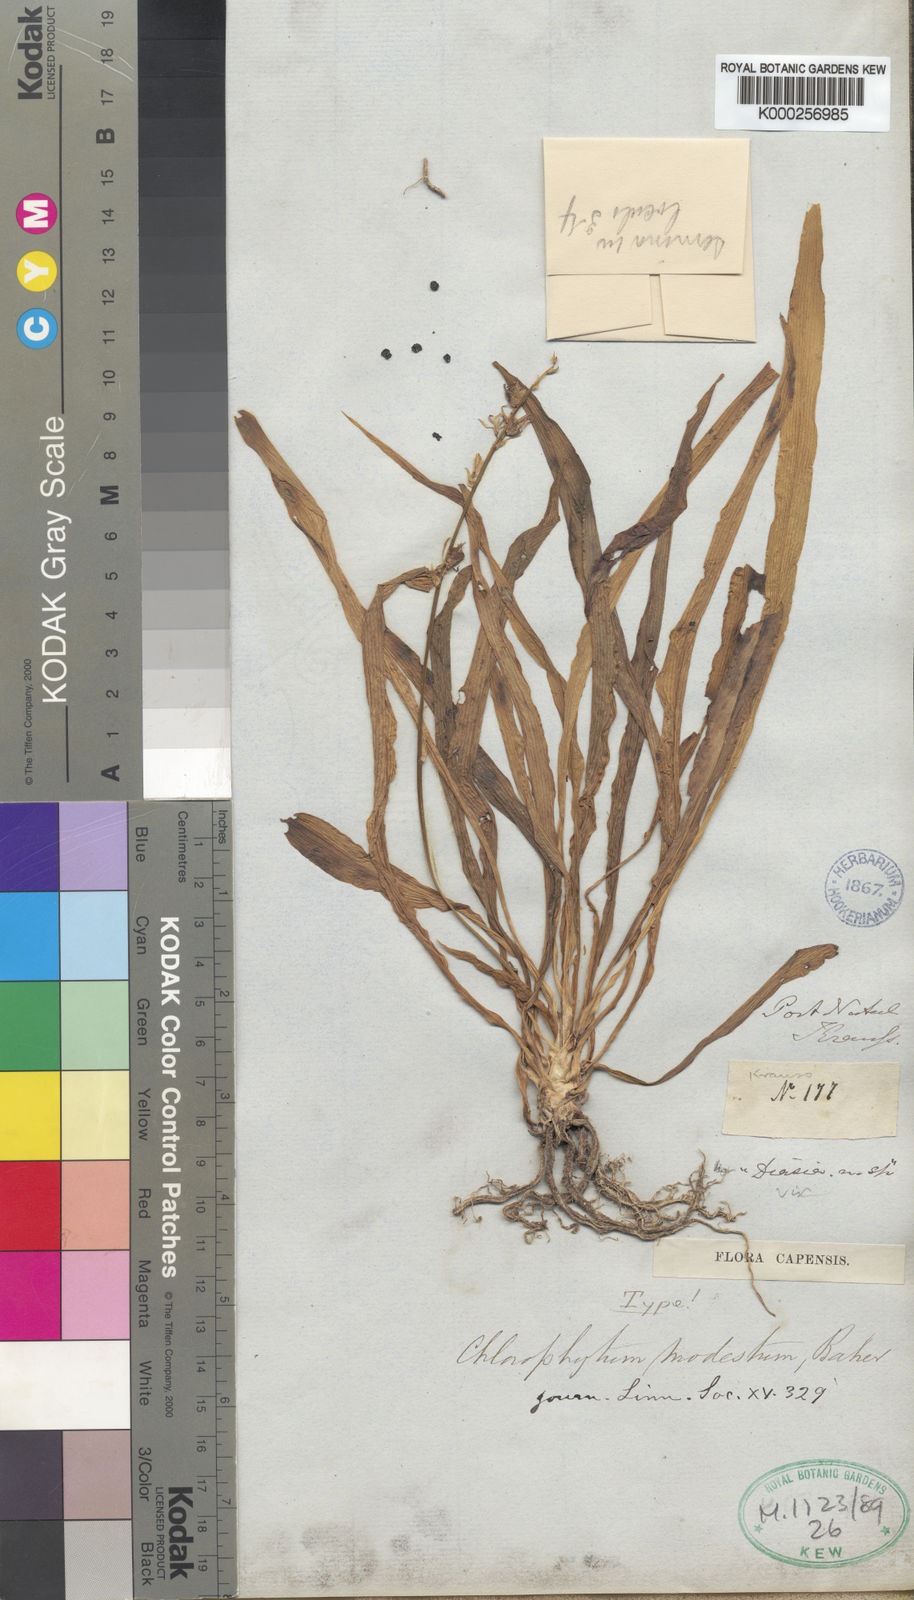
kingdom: Plantae
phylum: Tracheophyta
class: Liliopsida
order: Asparagales
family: Asparagaceae
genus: Chlorophytum
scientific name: Chlorophytum modestum
